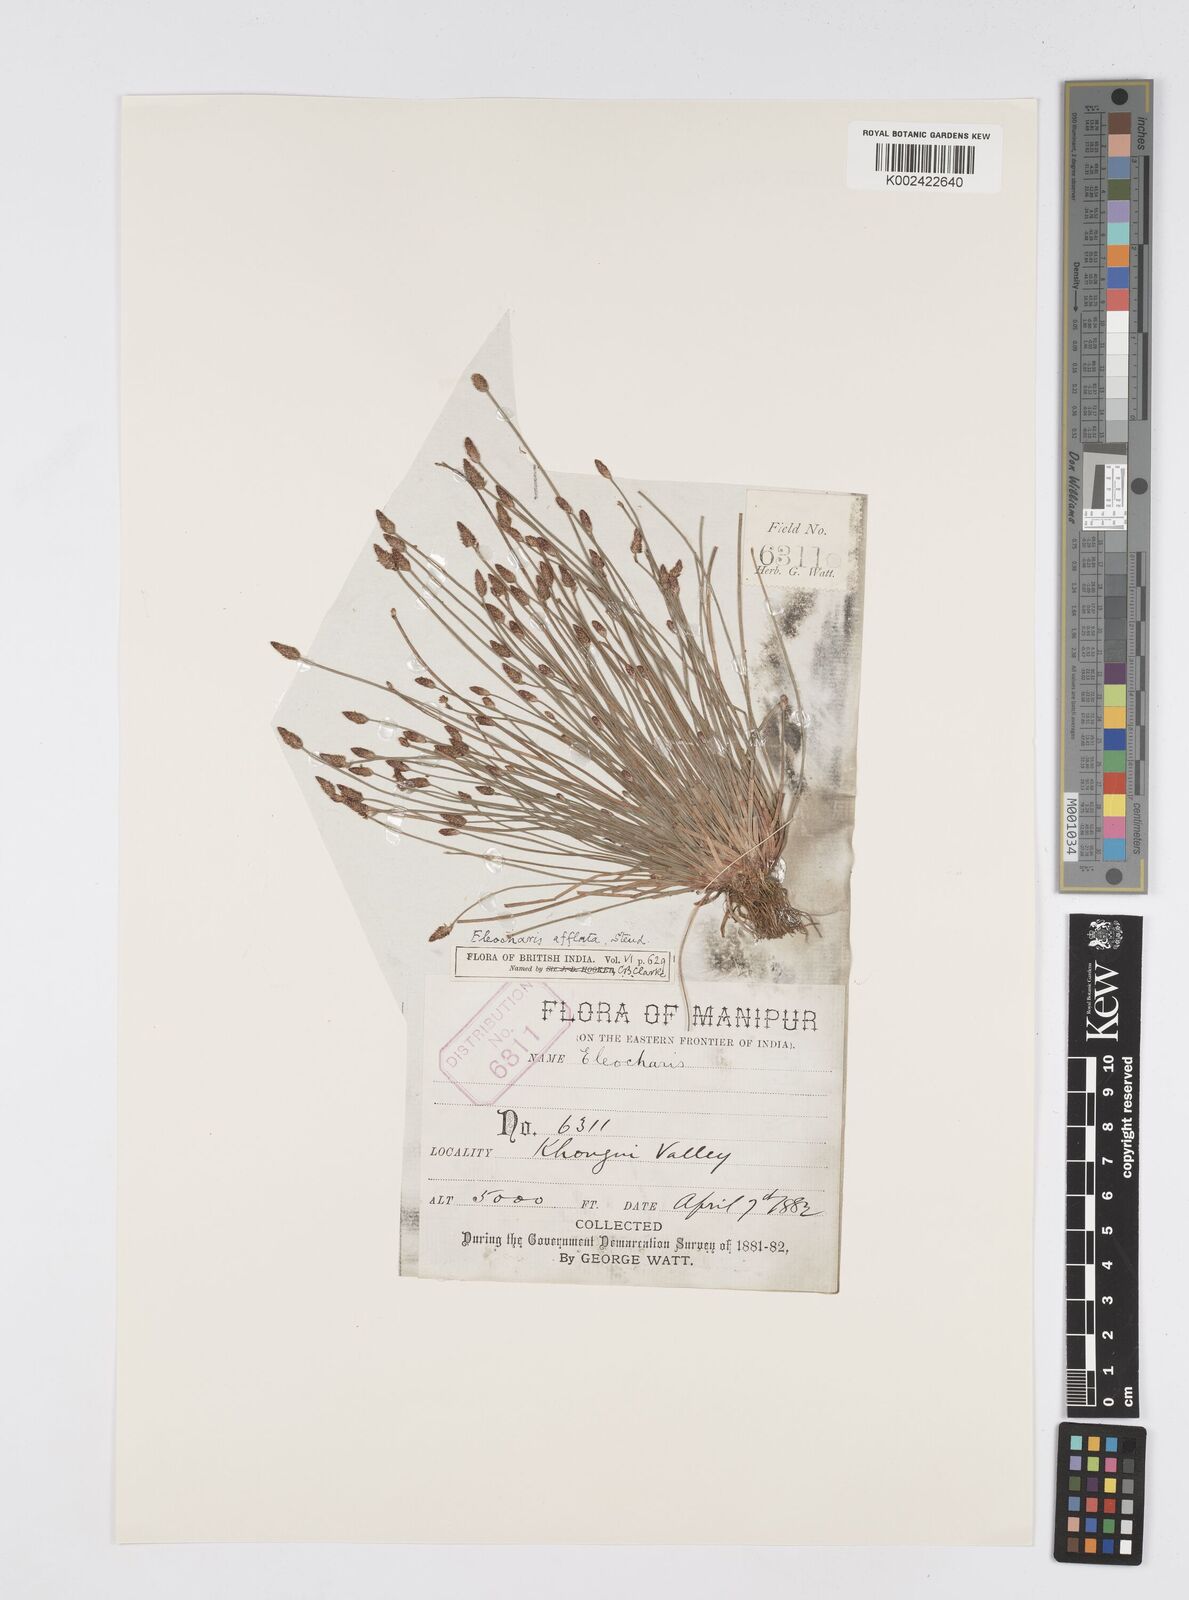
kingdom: Plantae
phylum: Tracheophyta
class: Liliopsida
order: Poales
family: Cyperaceae
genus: Eleocharis
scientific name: Eleocharis pellucida
